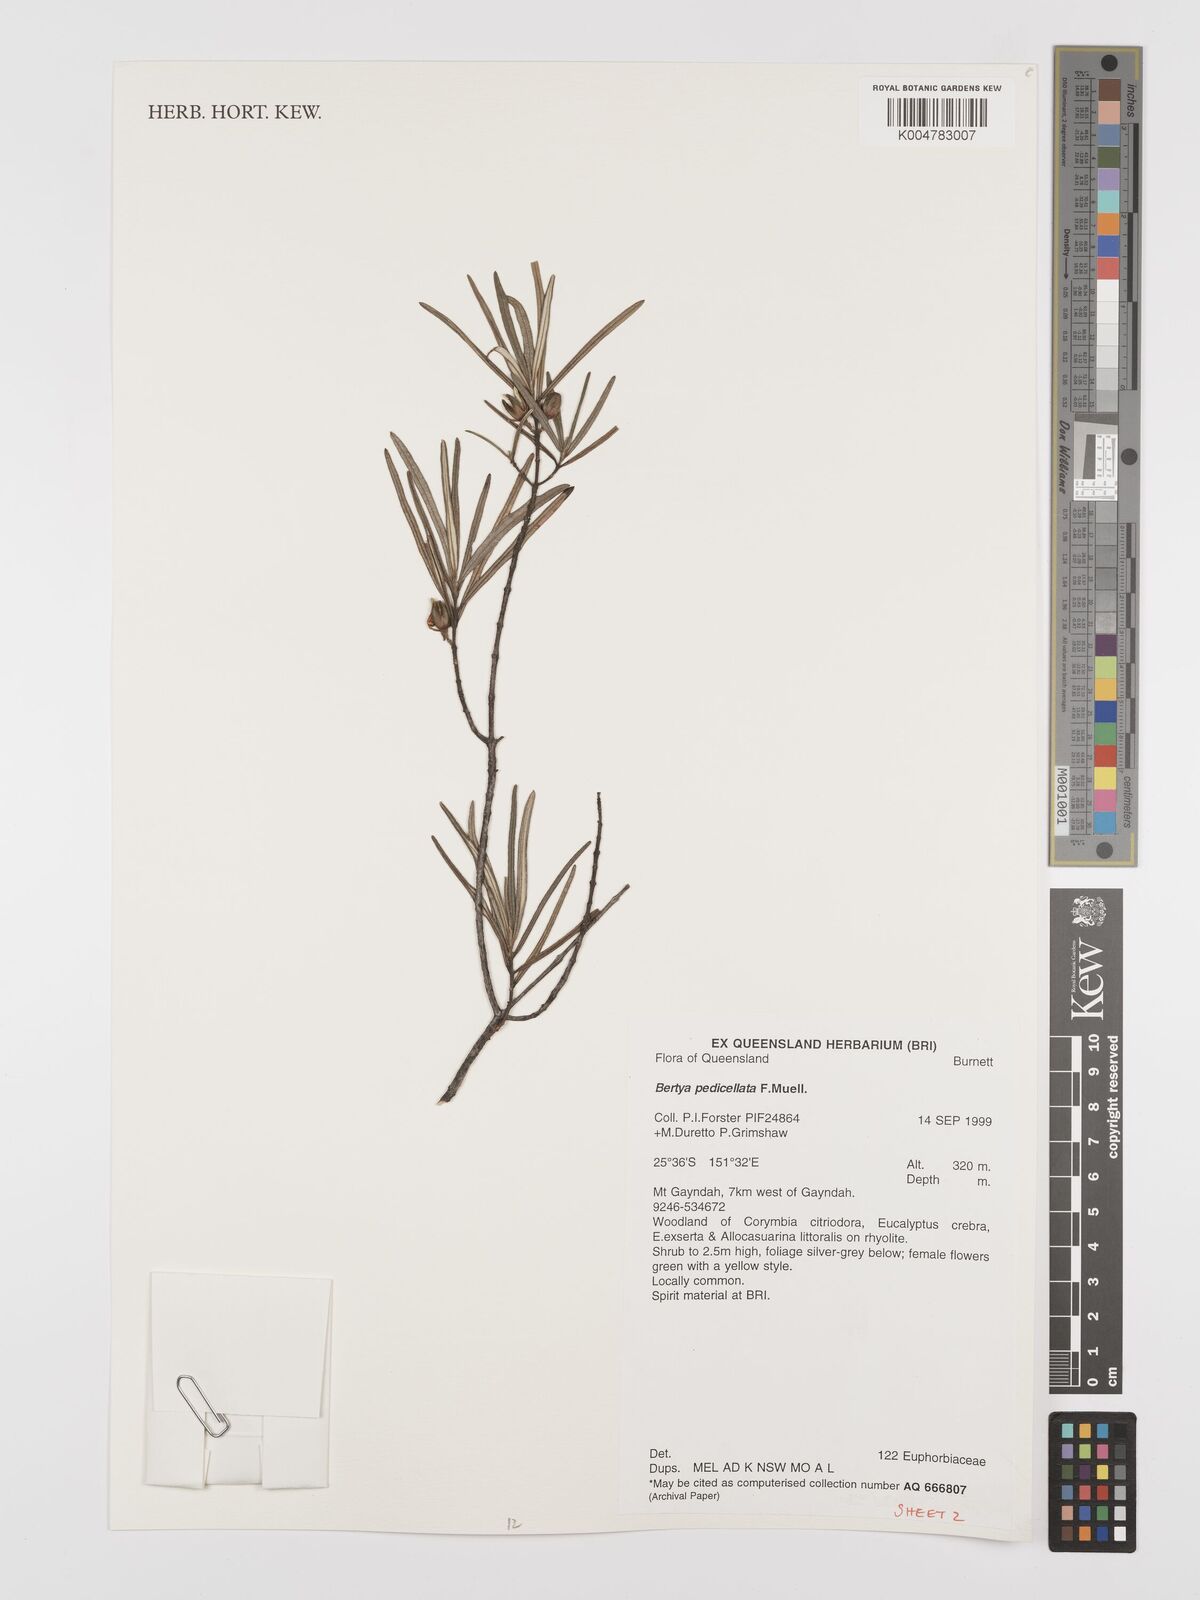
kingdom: Plantae
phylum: Tracheophyta
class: Magnoliopsida
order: Malpighiales
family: Euphorbiaceae
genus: Bertya
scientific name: Bertya pedicellata
